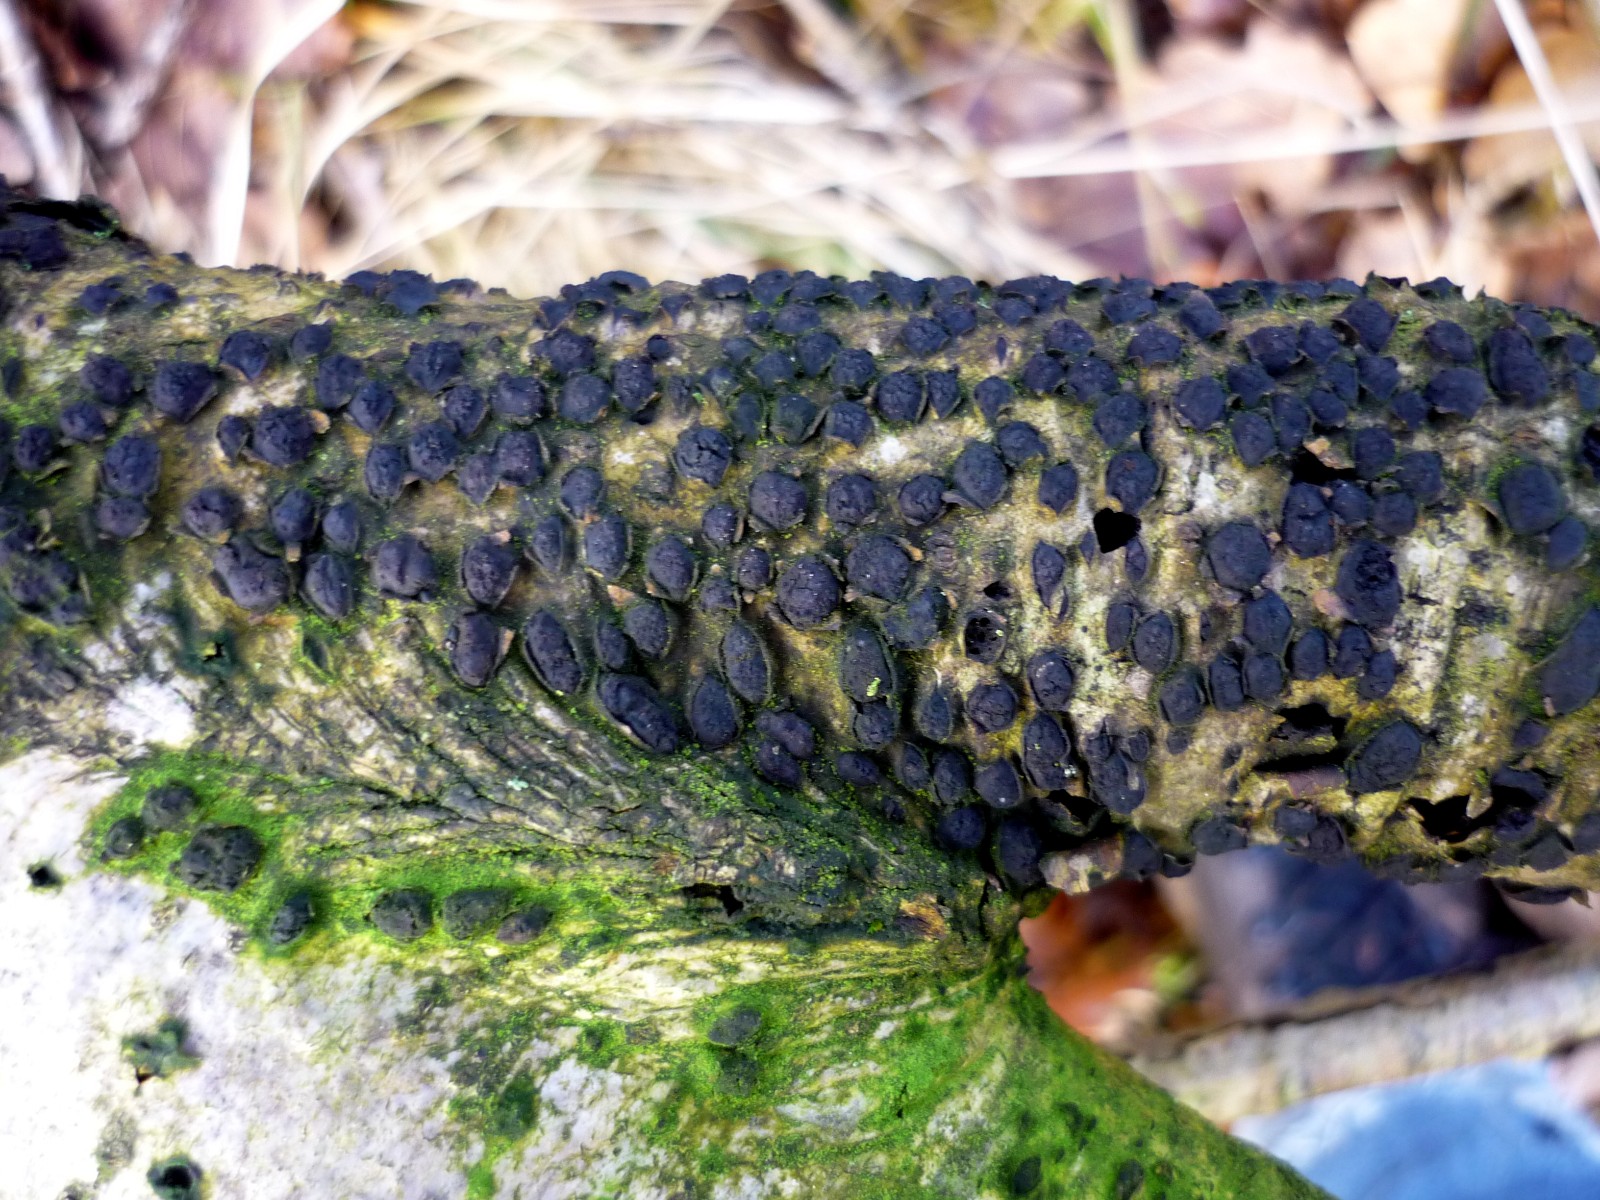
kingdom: Fungi
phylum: Ascomycota
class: Sordariomycetes
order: Xylariales
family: Diatrypaceae
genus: Diatrypella
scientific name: Diatrypella quercina
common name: ege-kulskorpe
